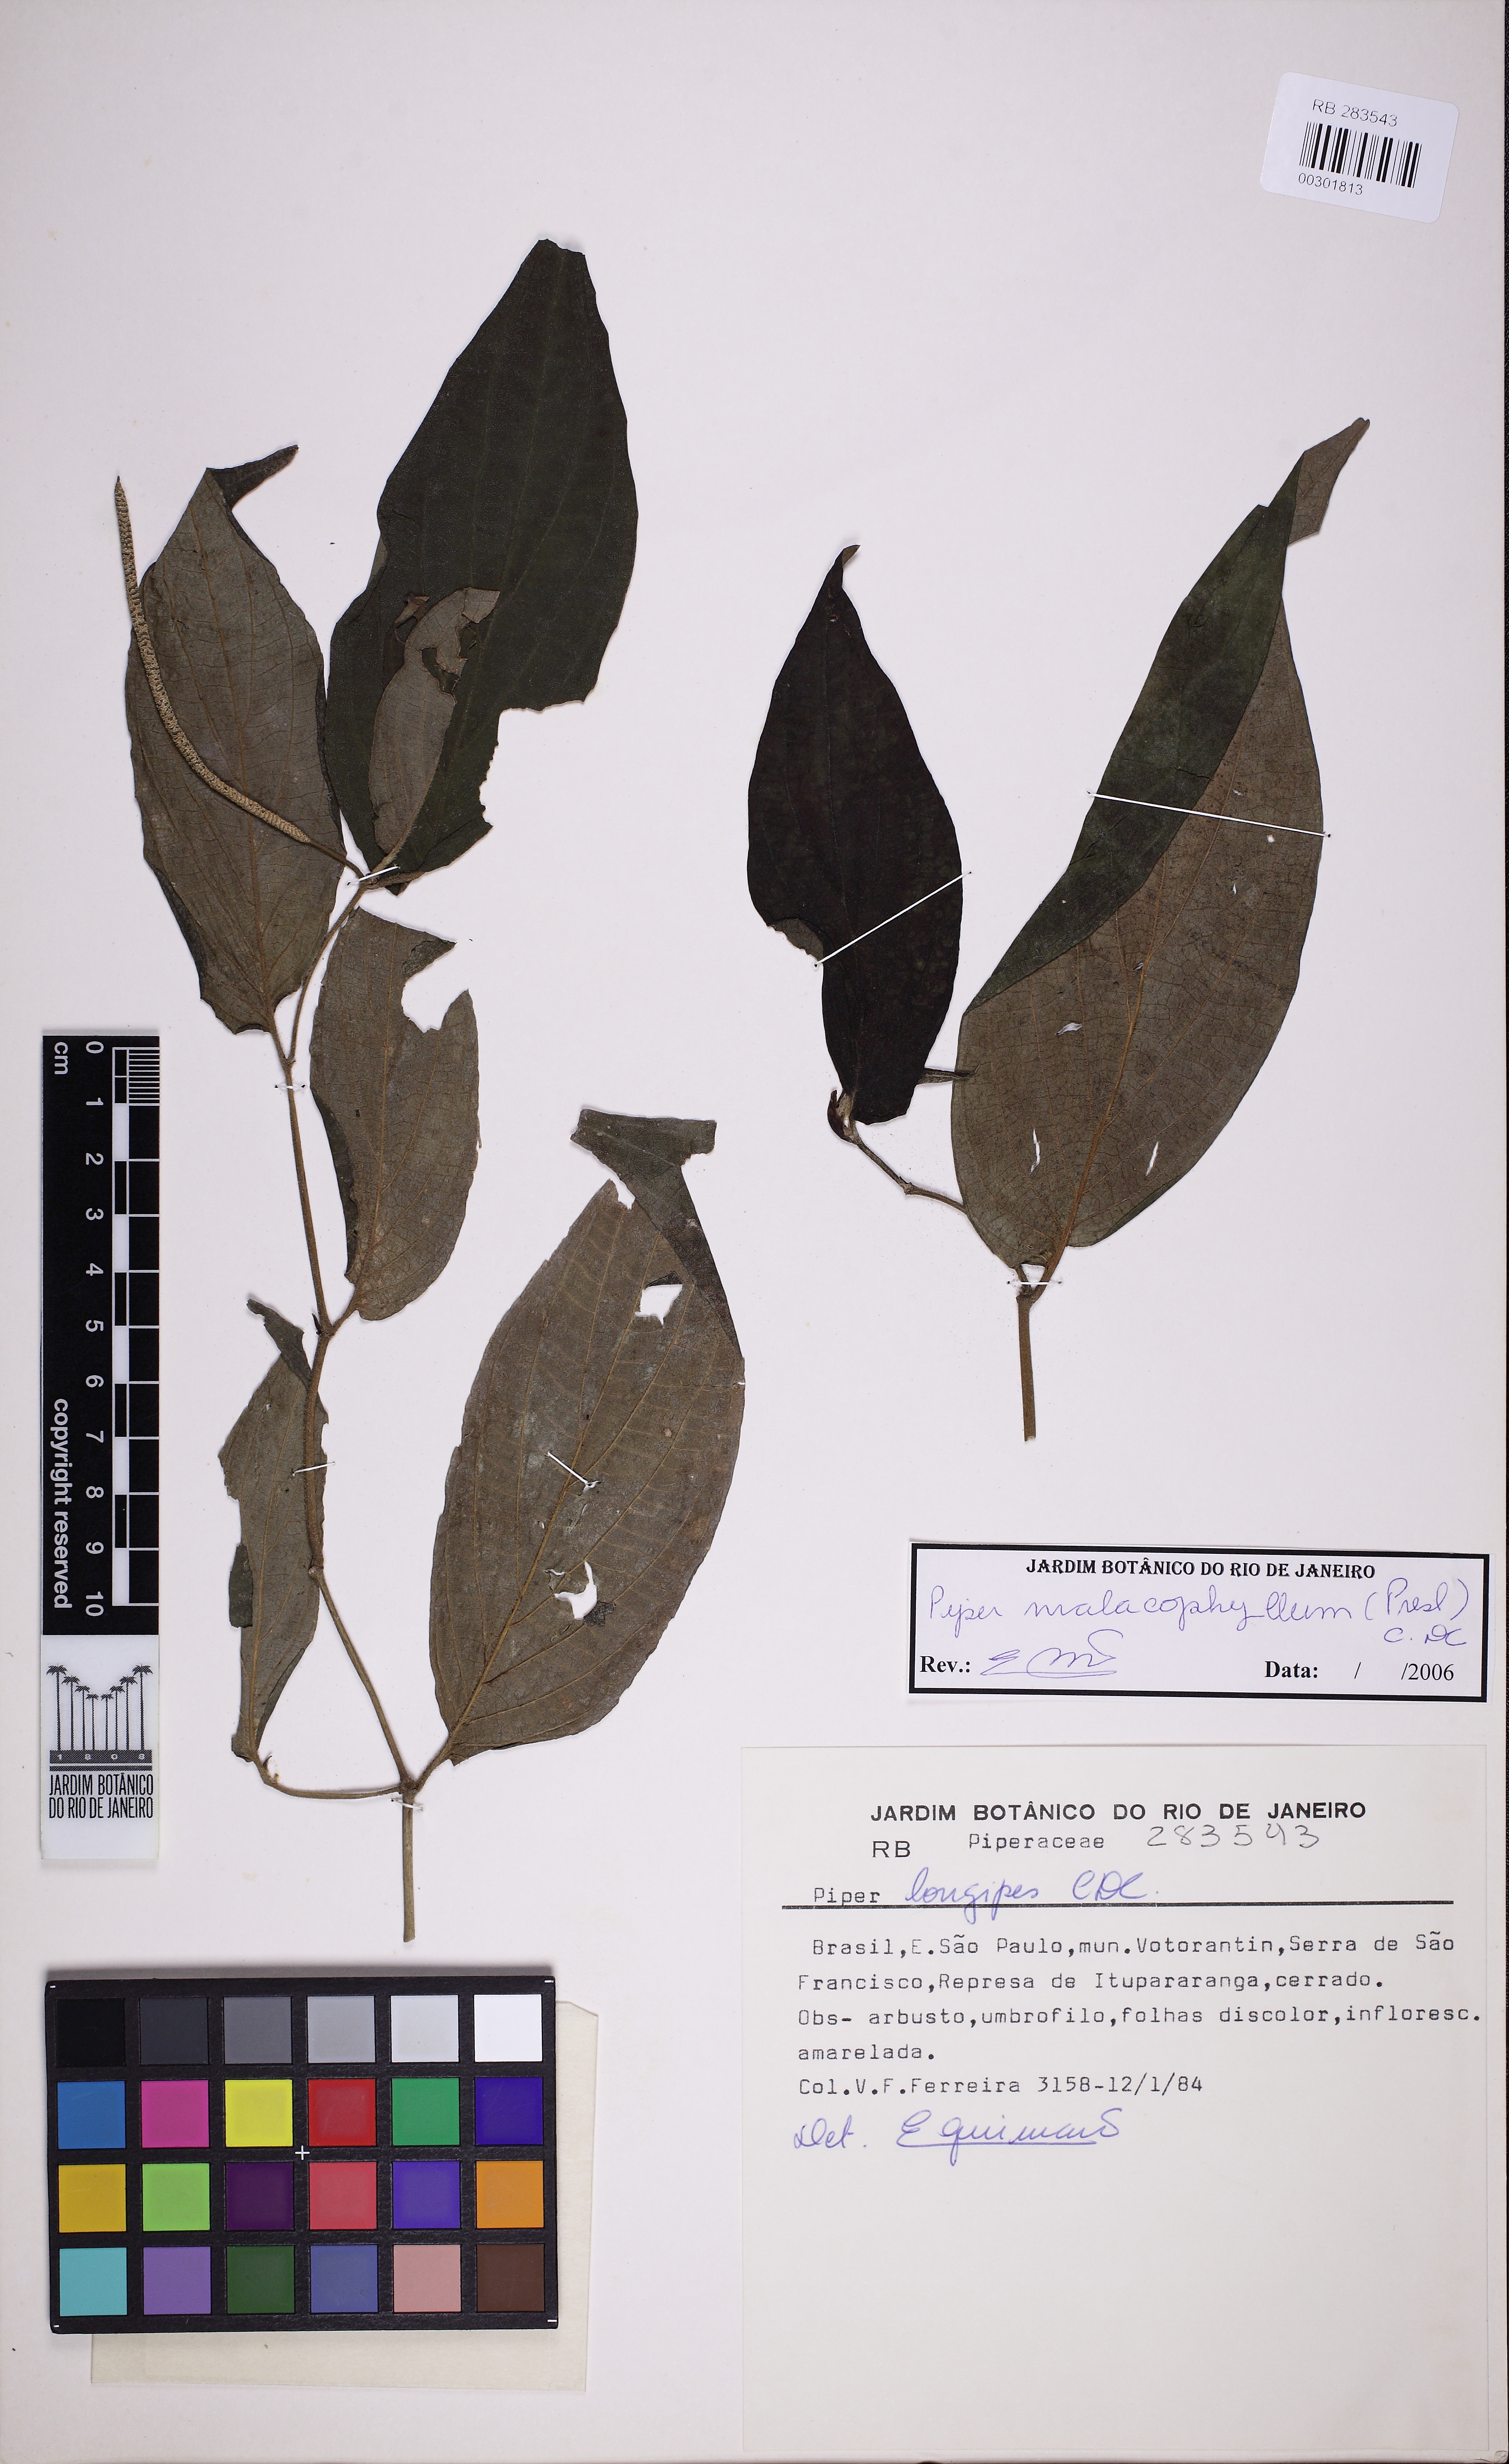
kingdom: Plantae
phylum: Tracheophyta
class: Magnoliopsida
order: Piperales
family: Piperaceae
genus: Piper
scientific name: Piper malacophyllum
